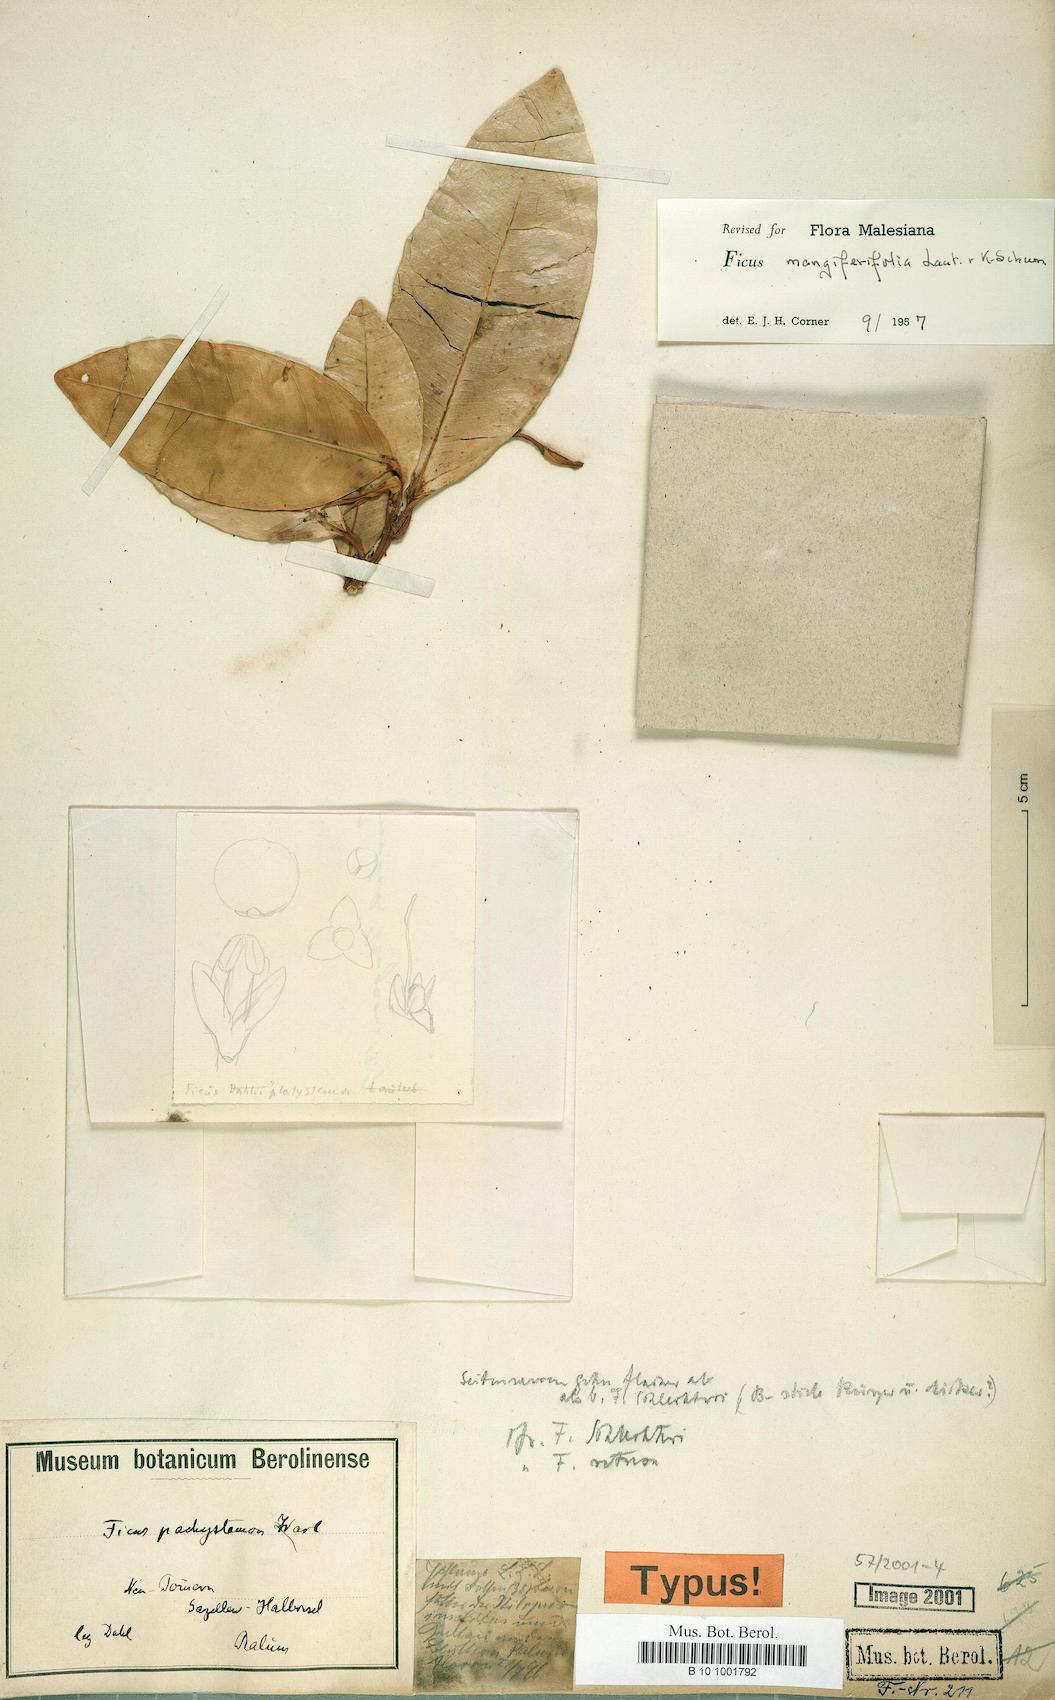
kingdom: Plantae
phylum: Tracheophyta
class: Magnoliopsida
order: Rosales
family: Moraceae
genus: Ficus
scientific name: Ficus subtrinervia
